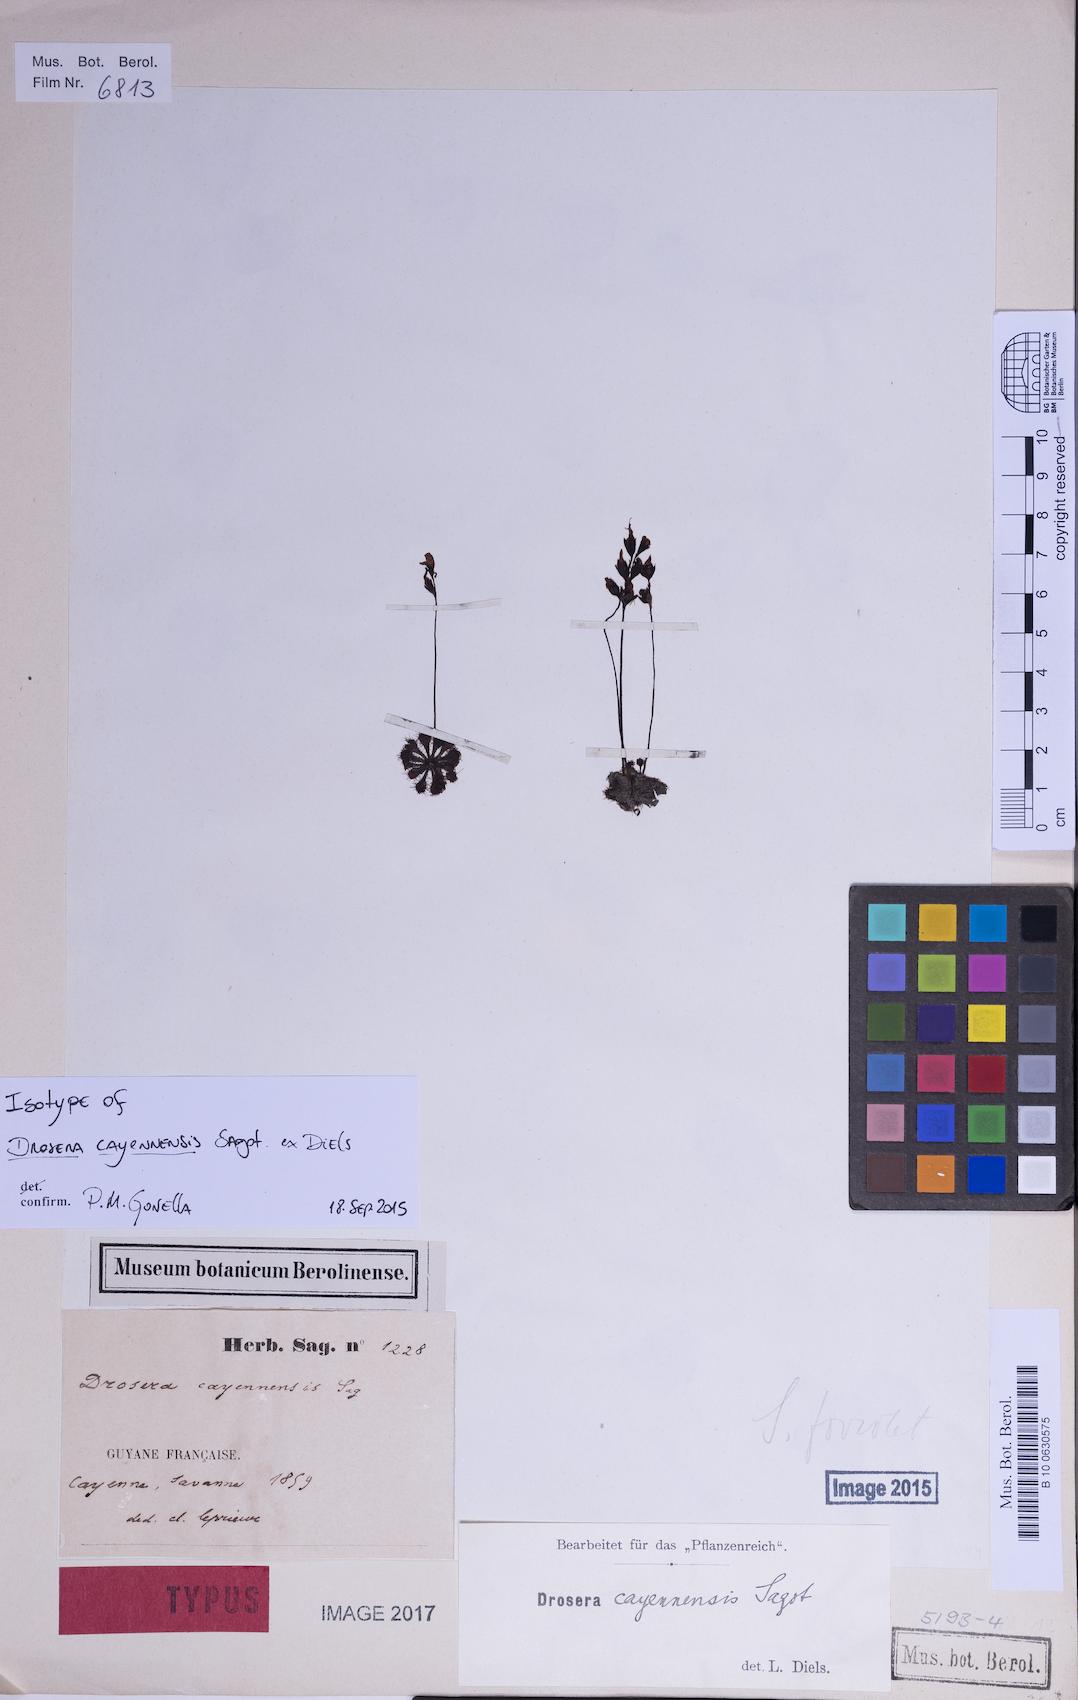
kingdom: Plantae
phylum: Tracheophyta
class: Magnoliopsida
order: Caryophyllales
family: Droseraceae
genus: Drosera
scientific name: Drosera cayennensis
